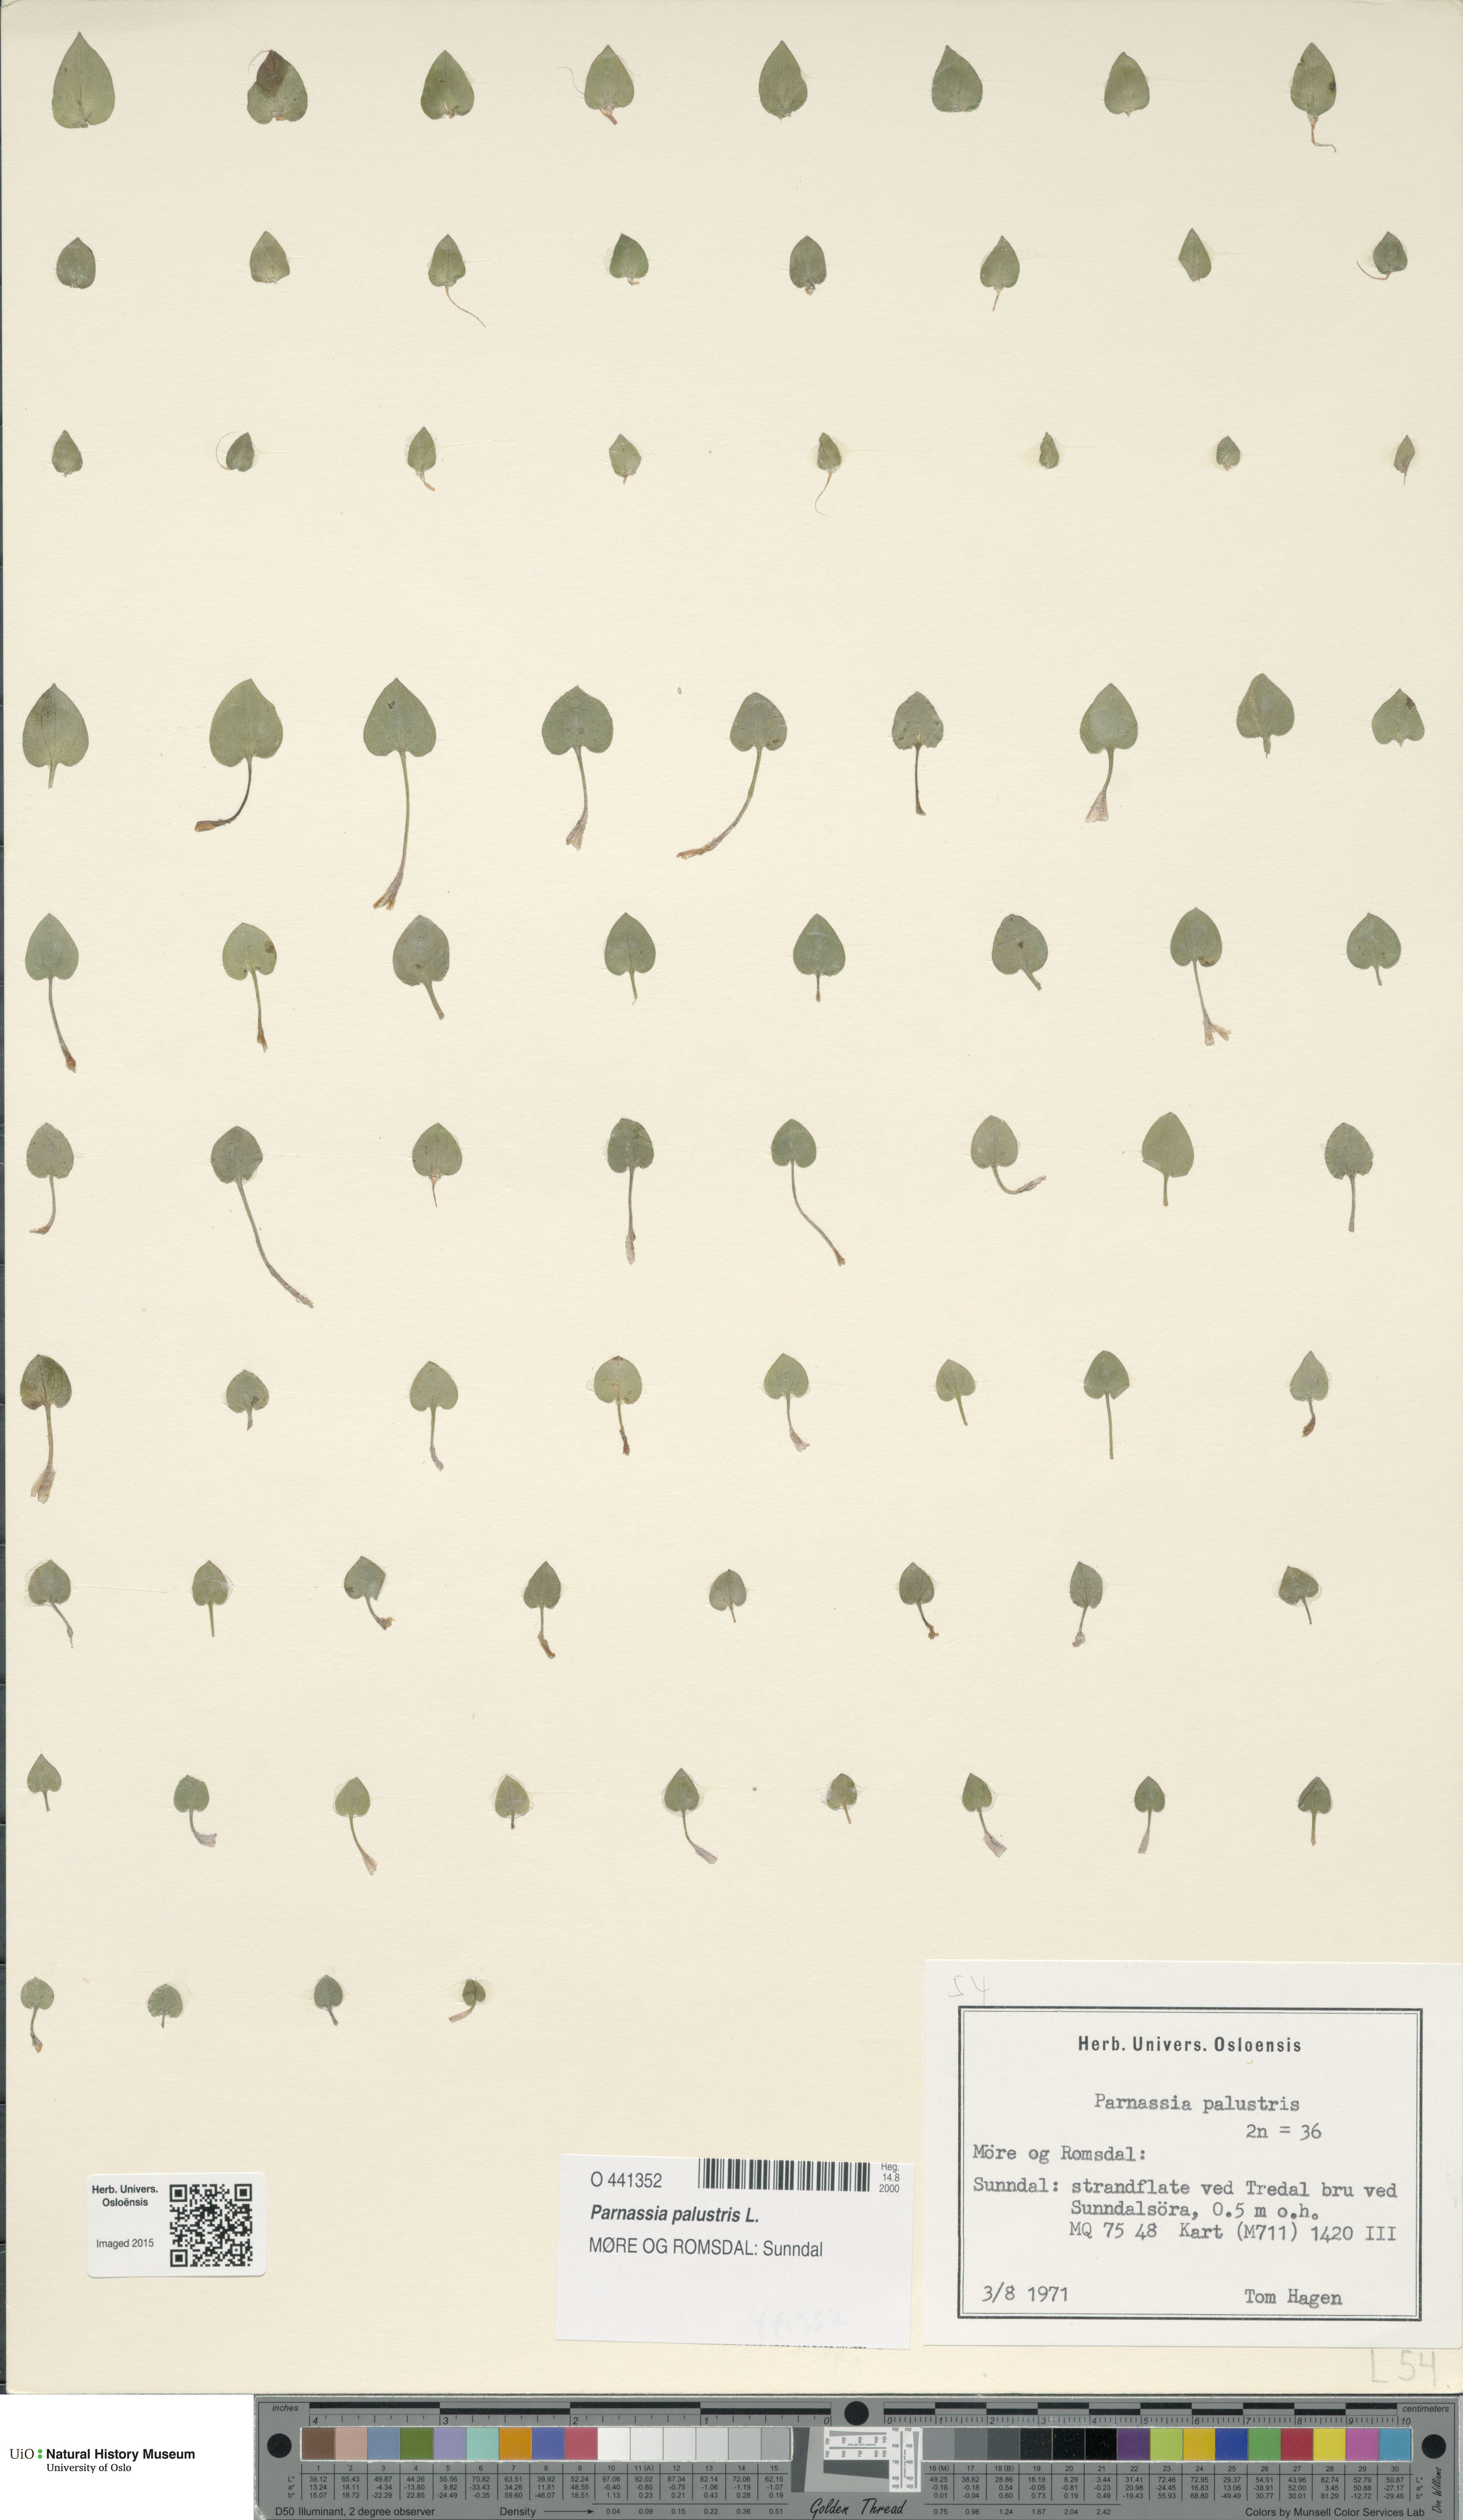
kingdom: Plantae
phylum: Tracheophyta
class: Magnoliopsida
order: Celastrales
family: Parnassiaceae
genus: Parnassia
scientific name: Parnassia palustris
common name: Grass-of-parnassus
